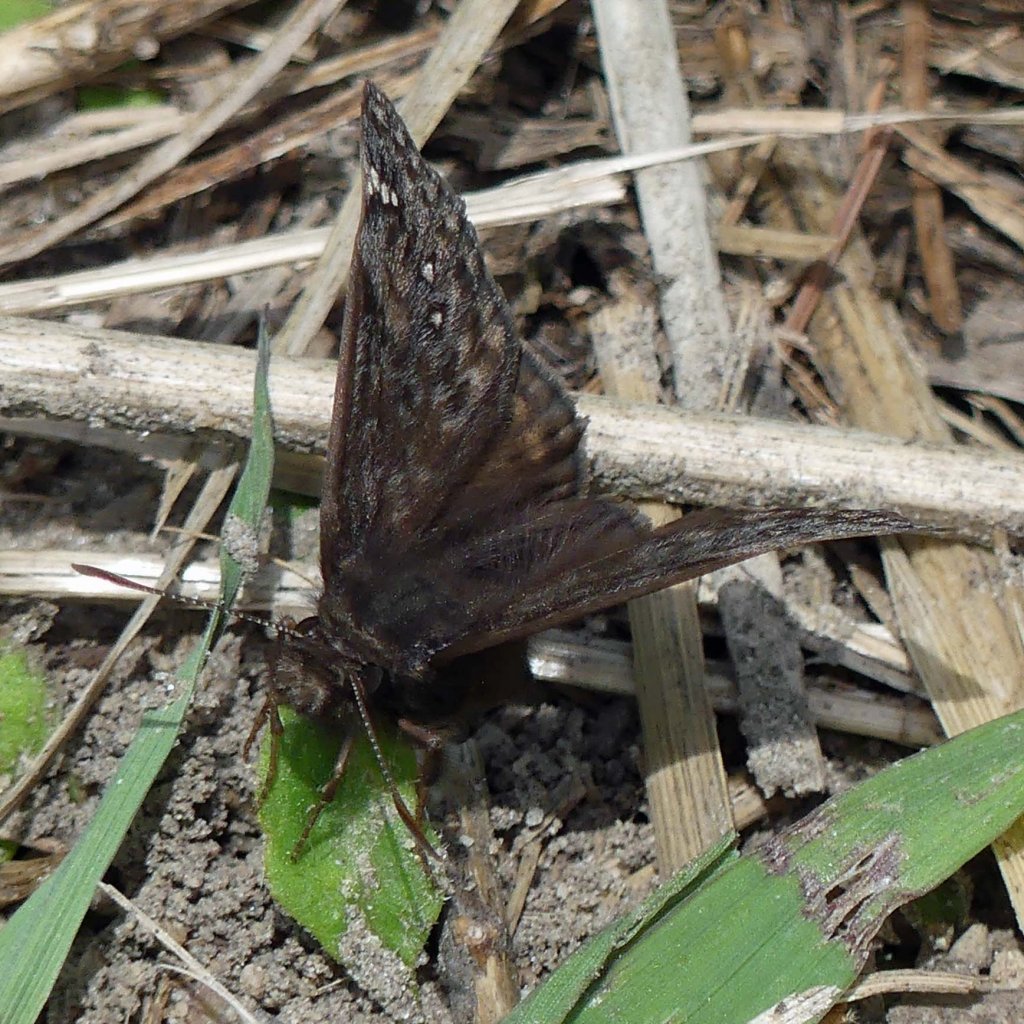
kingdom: Animalia
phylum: Arthropoda
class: Insecta
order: Lepidoptera
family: Hesperiidae
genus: Gesta
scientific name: Gesta
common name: Juvenal's Duskywing
